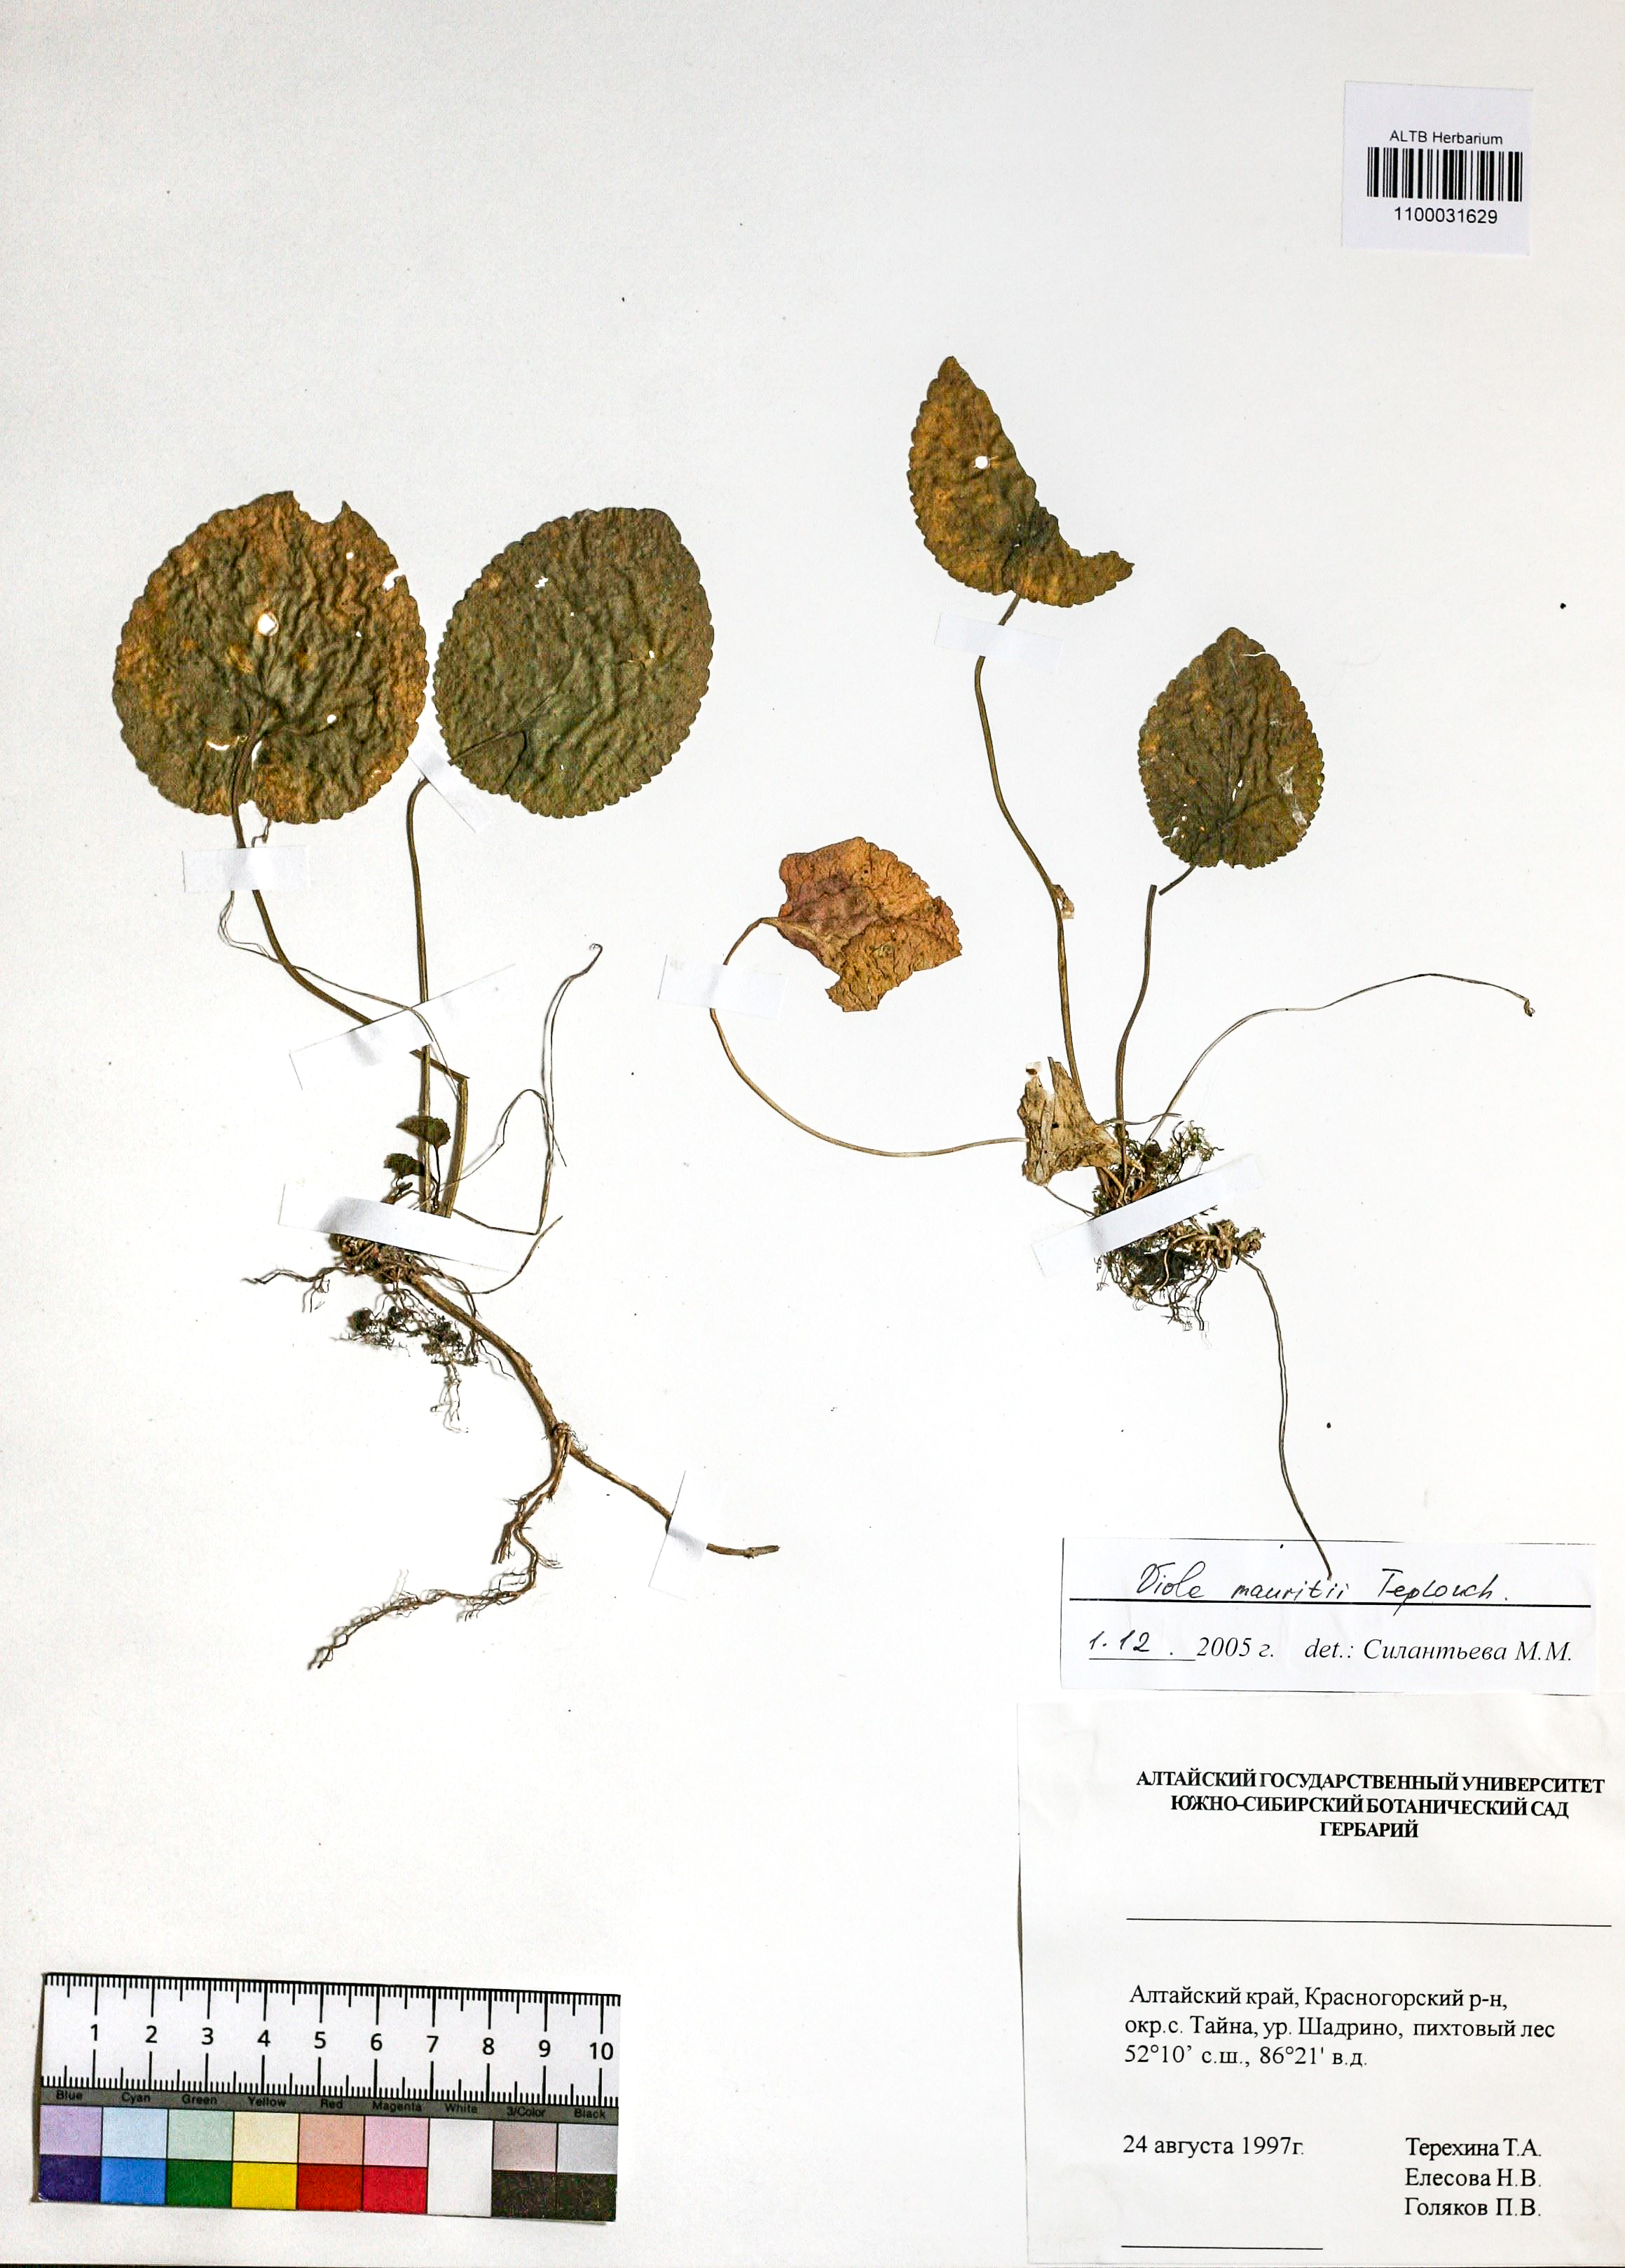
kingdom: Plantae
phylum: Tracheophyta
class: Magnoliopsida
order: Malpighiales
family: Violaceae
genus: Viola
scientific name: Viola mauritii
